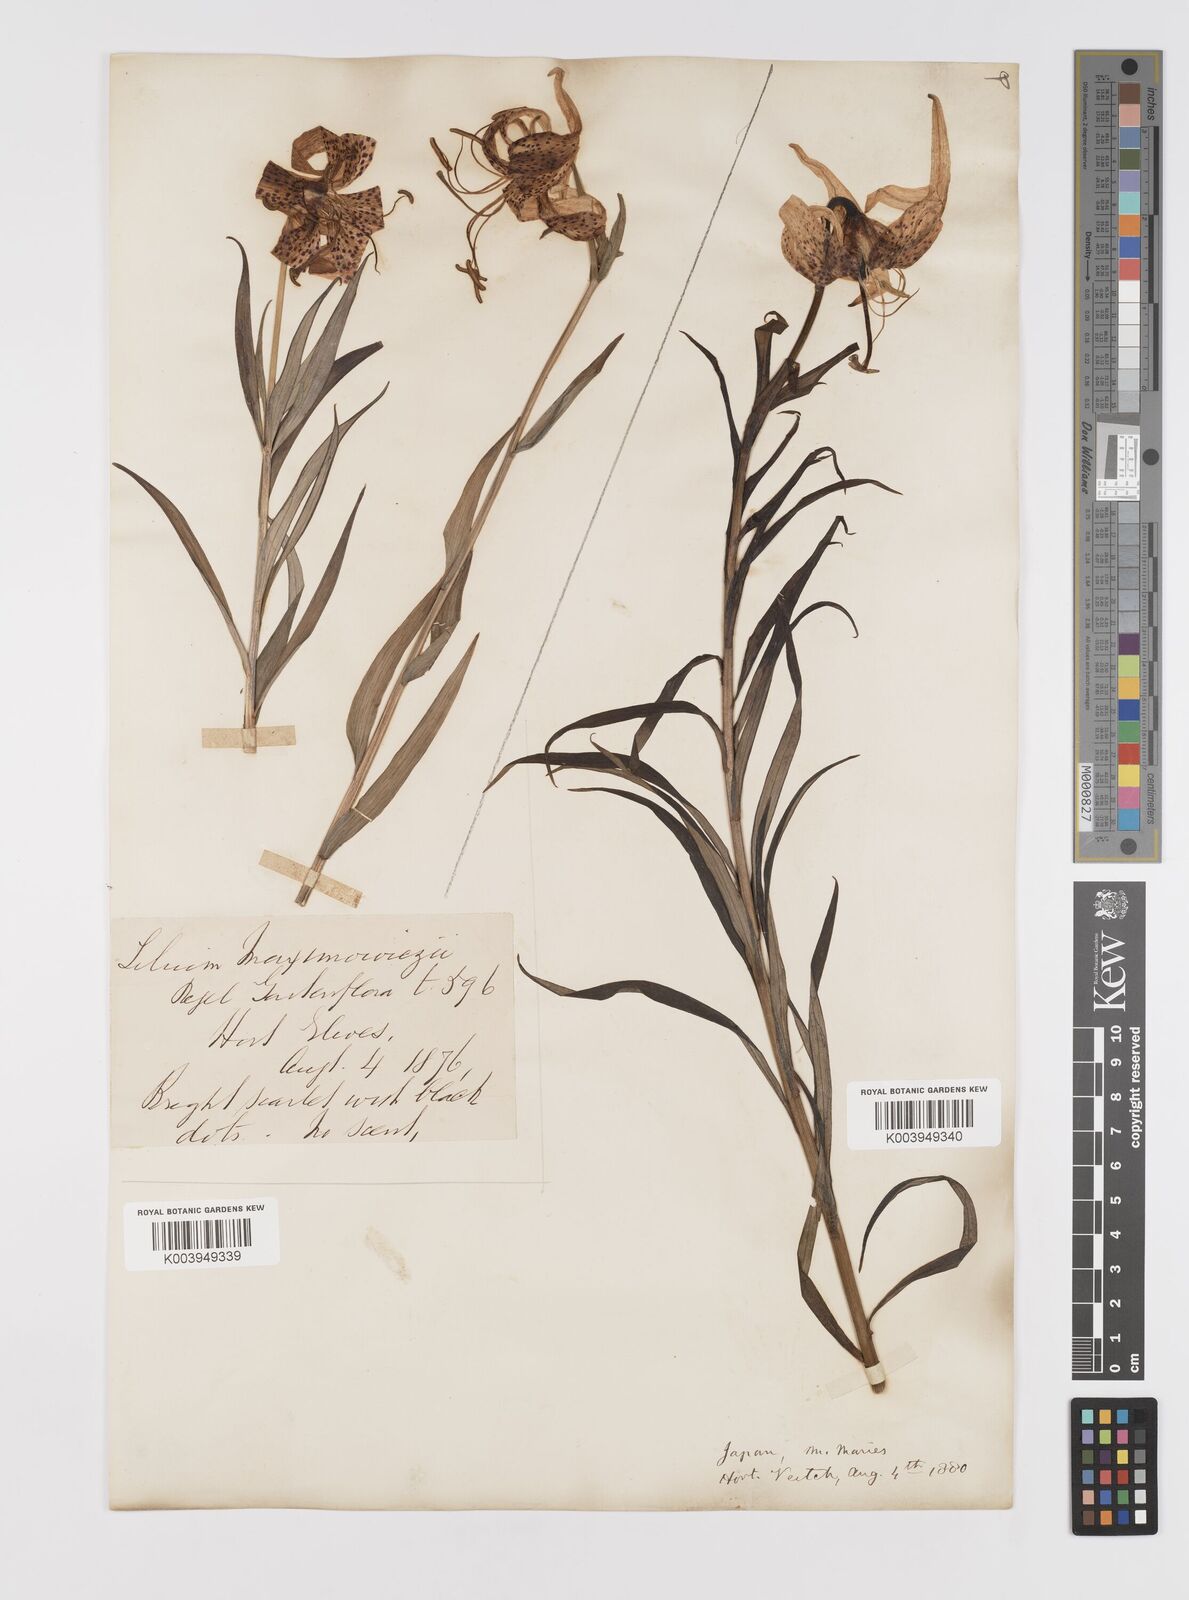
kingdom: Plantae
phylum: Tracheophyta
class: Liliopsida
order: Liliales
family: Liliaceae
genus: Lilium
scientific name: Lilium leichtlinii
